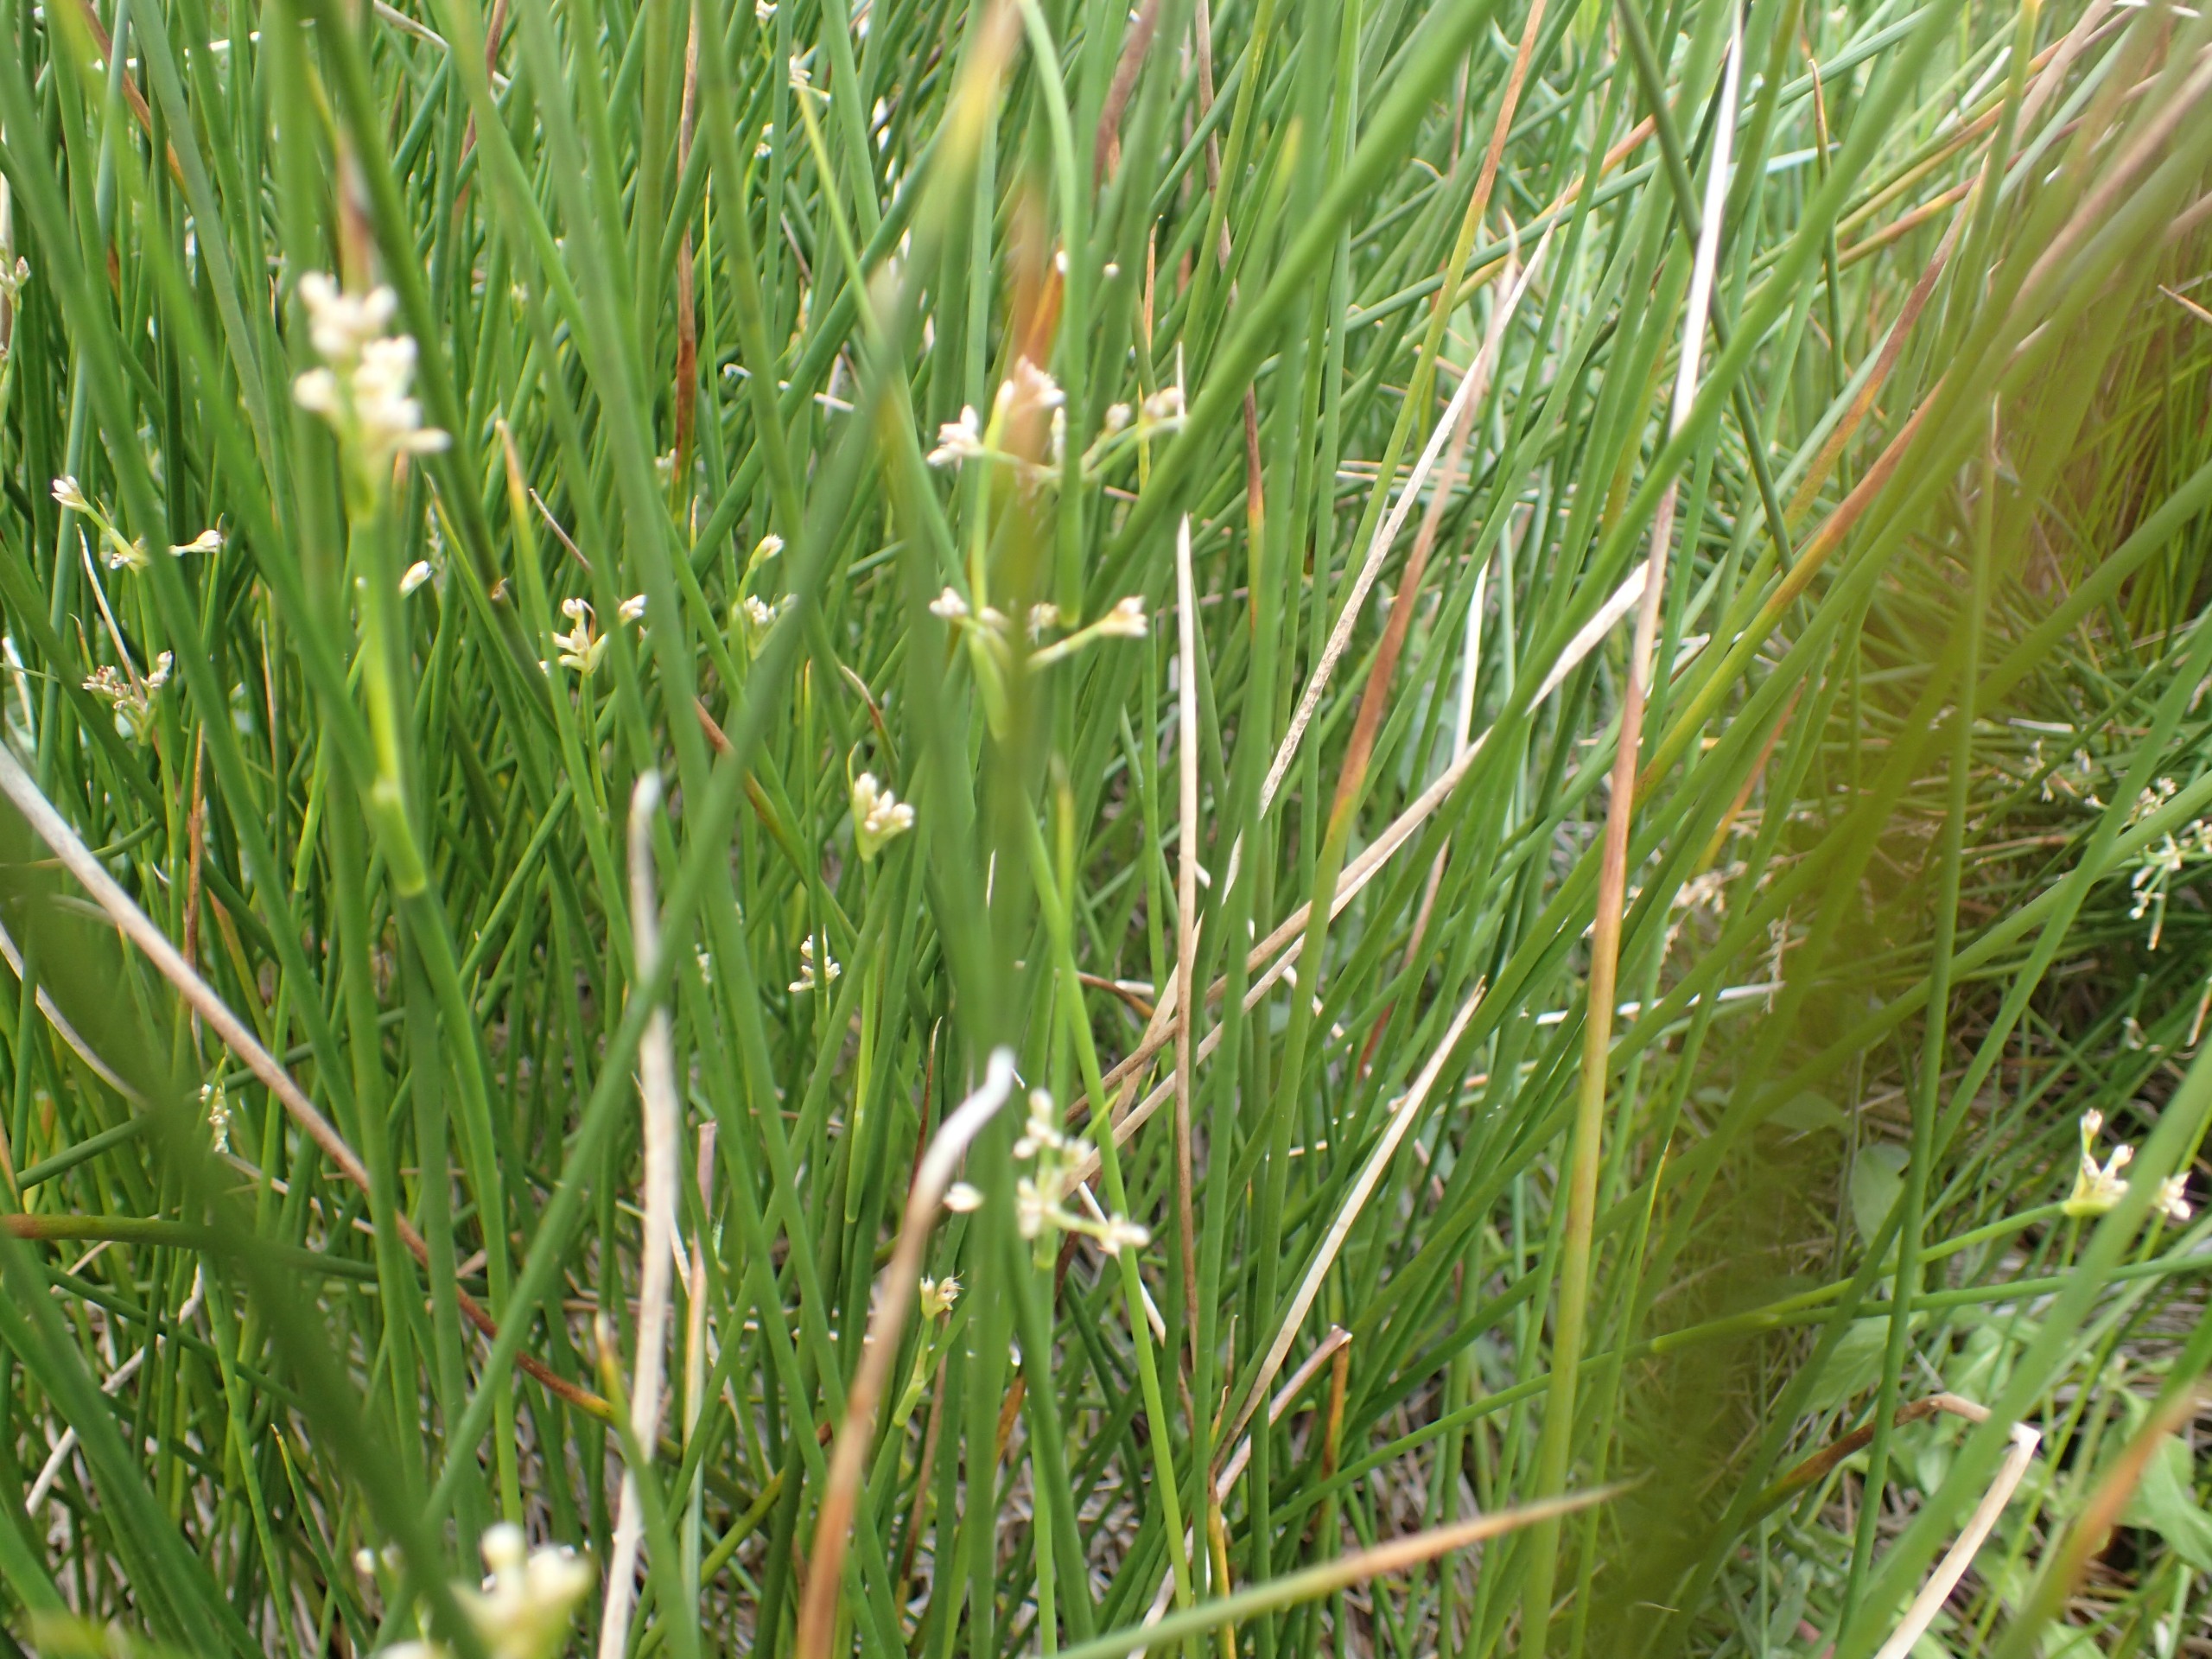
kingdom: Plantae
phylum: Tracheophyta
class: Liliopsida
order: Poales
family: Juncaceae
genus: Juncus
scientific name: Juncus subnodulosus
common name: Butblomstret siv
